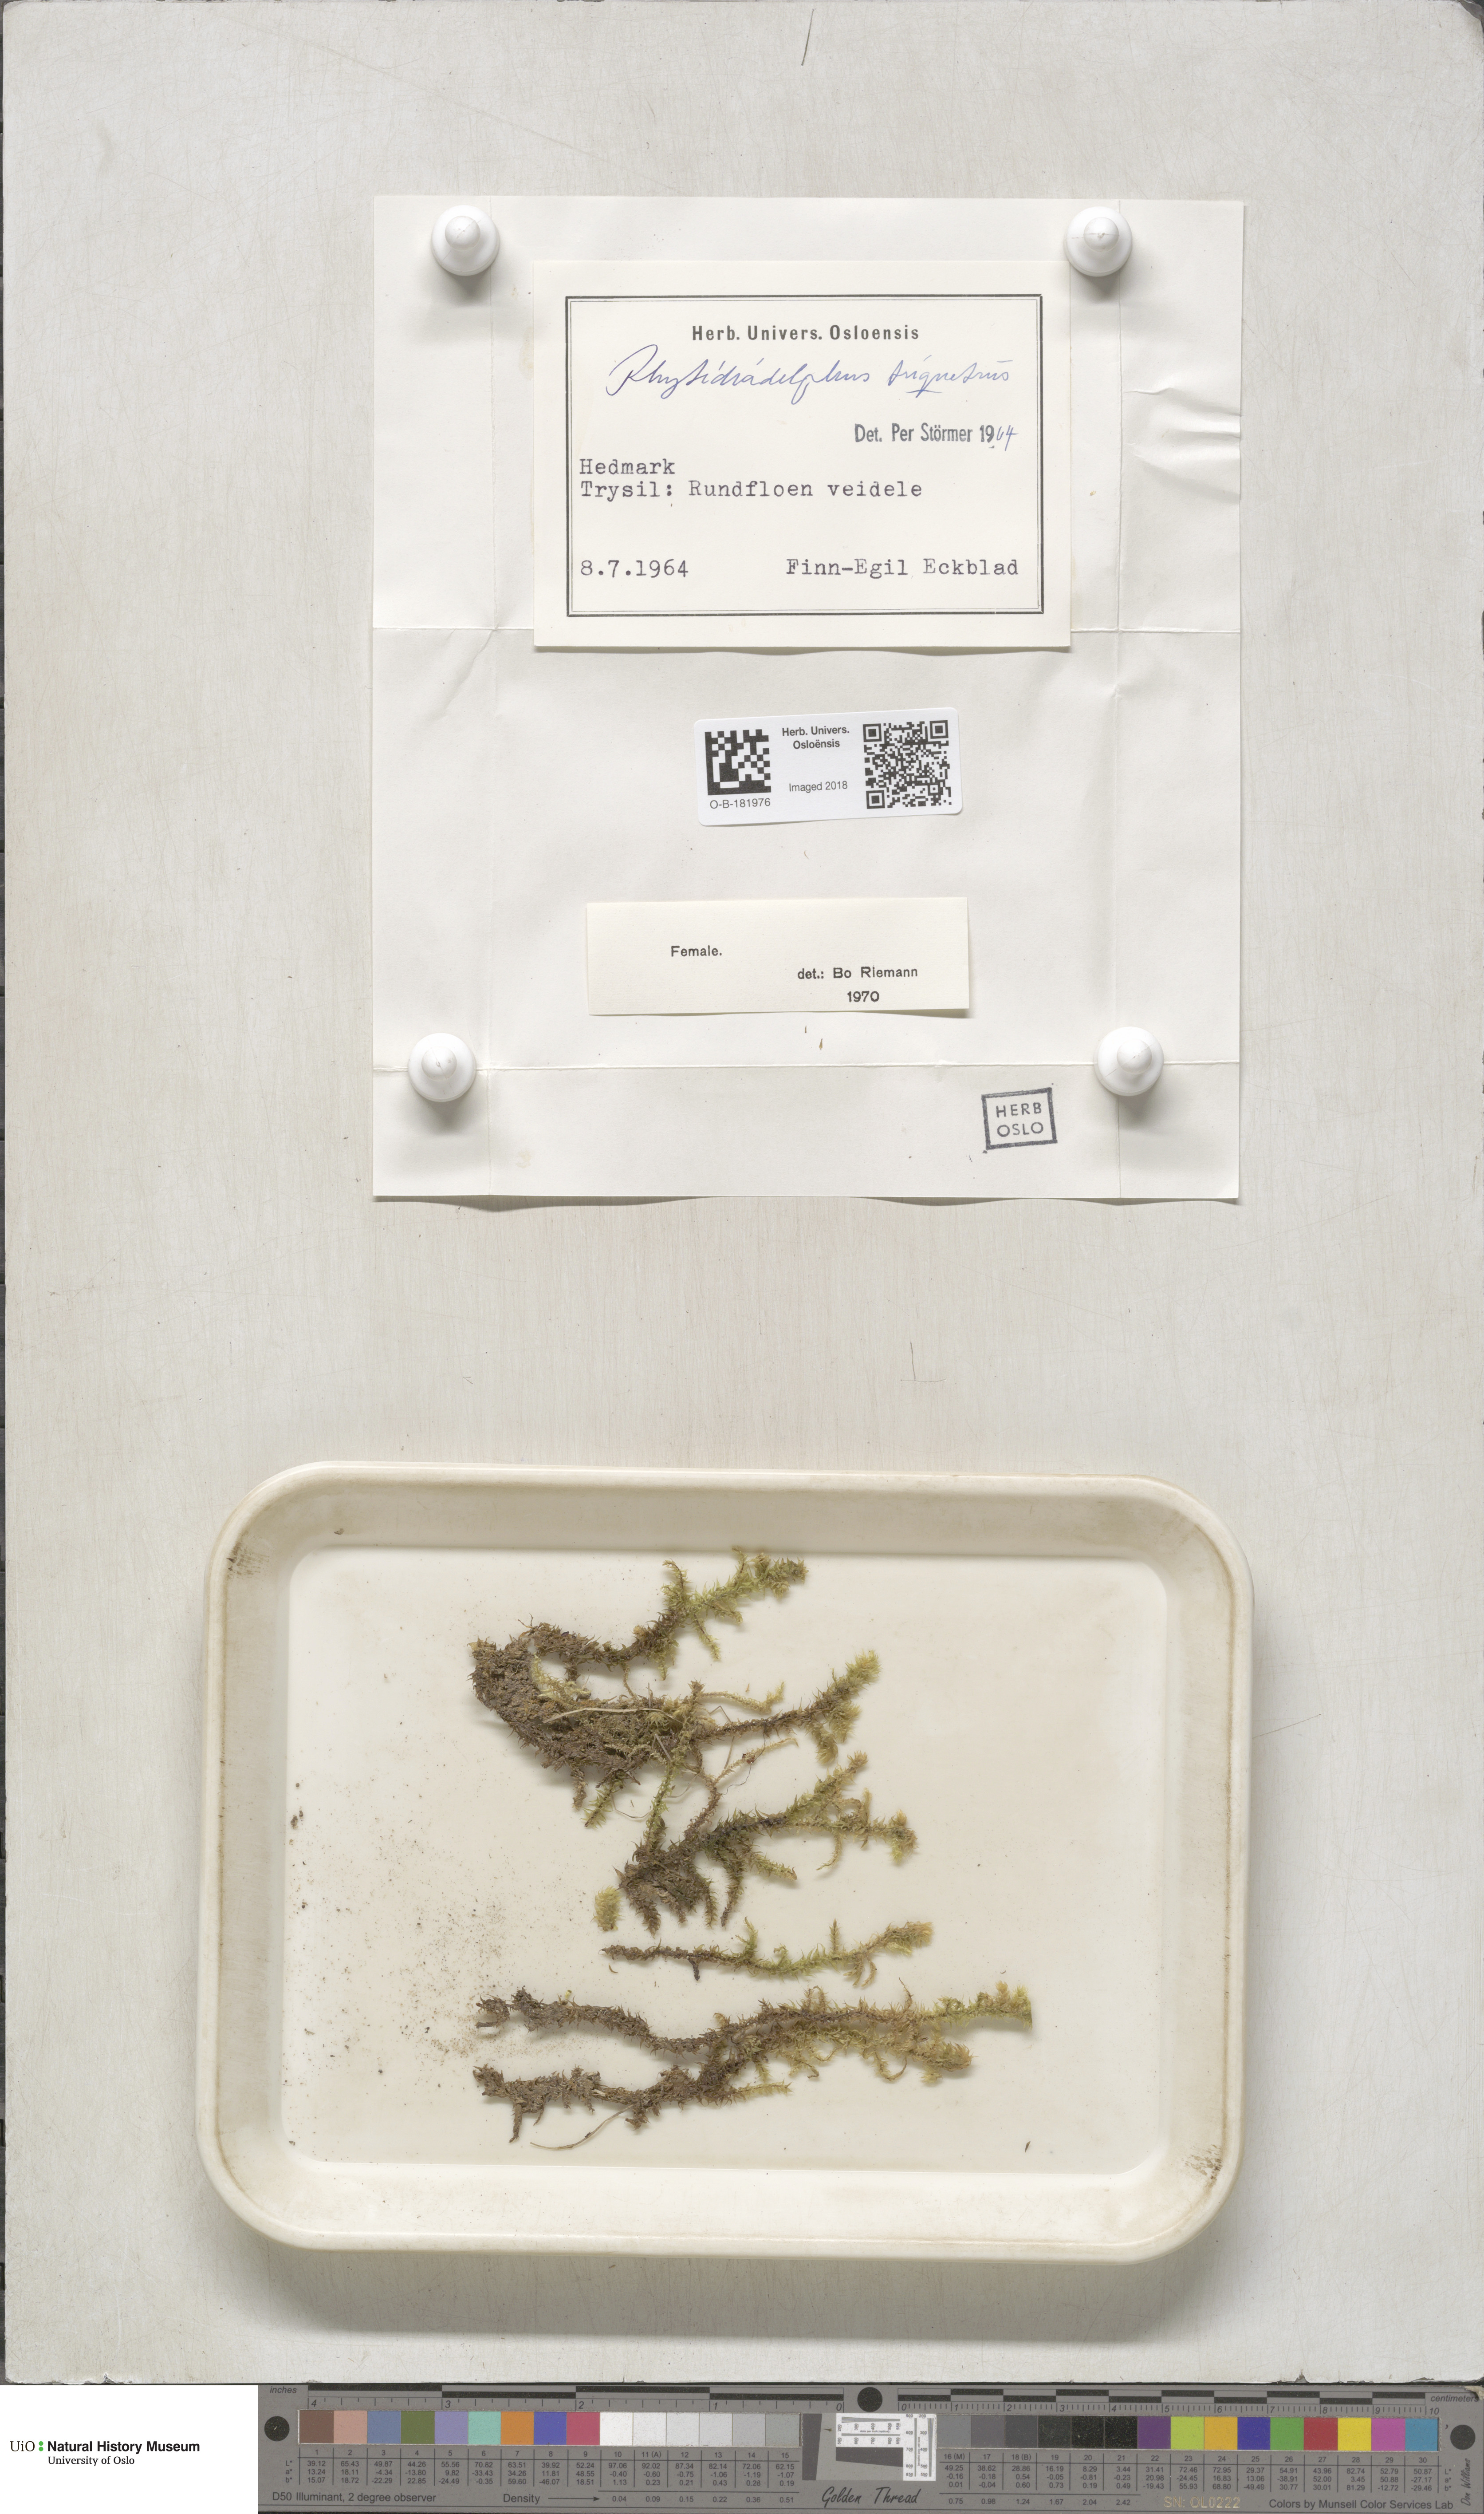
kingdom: Plantae
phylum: Bryophyta
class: Bryopsida
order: Hypnales
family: Hylocomiaceae
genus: Hylocomiadelphus
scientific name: Hylocomiadelphus triquetrus
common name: Rough goose neck moss
